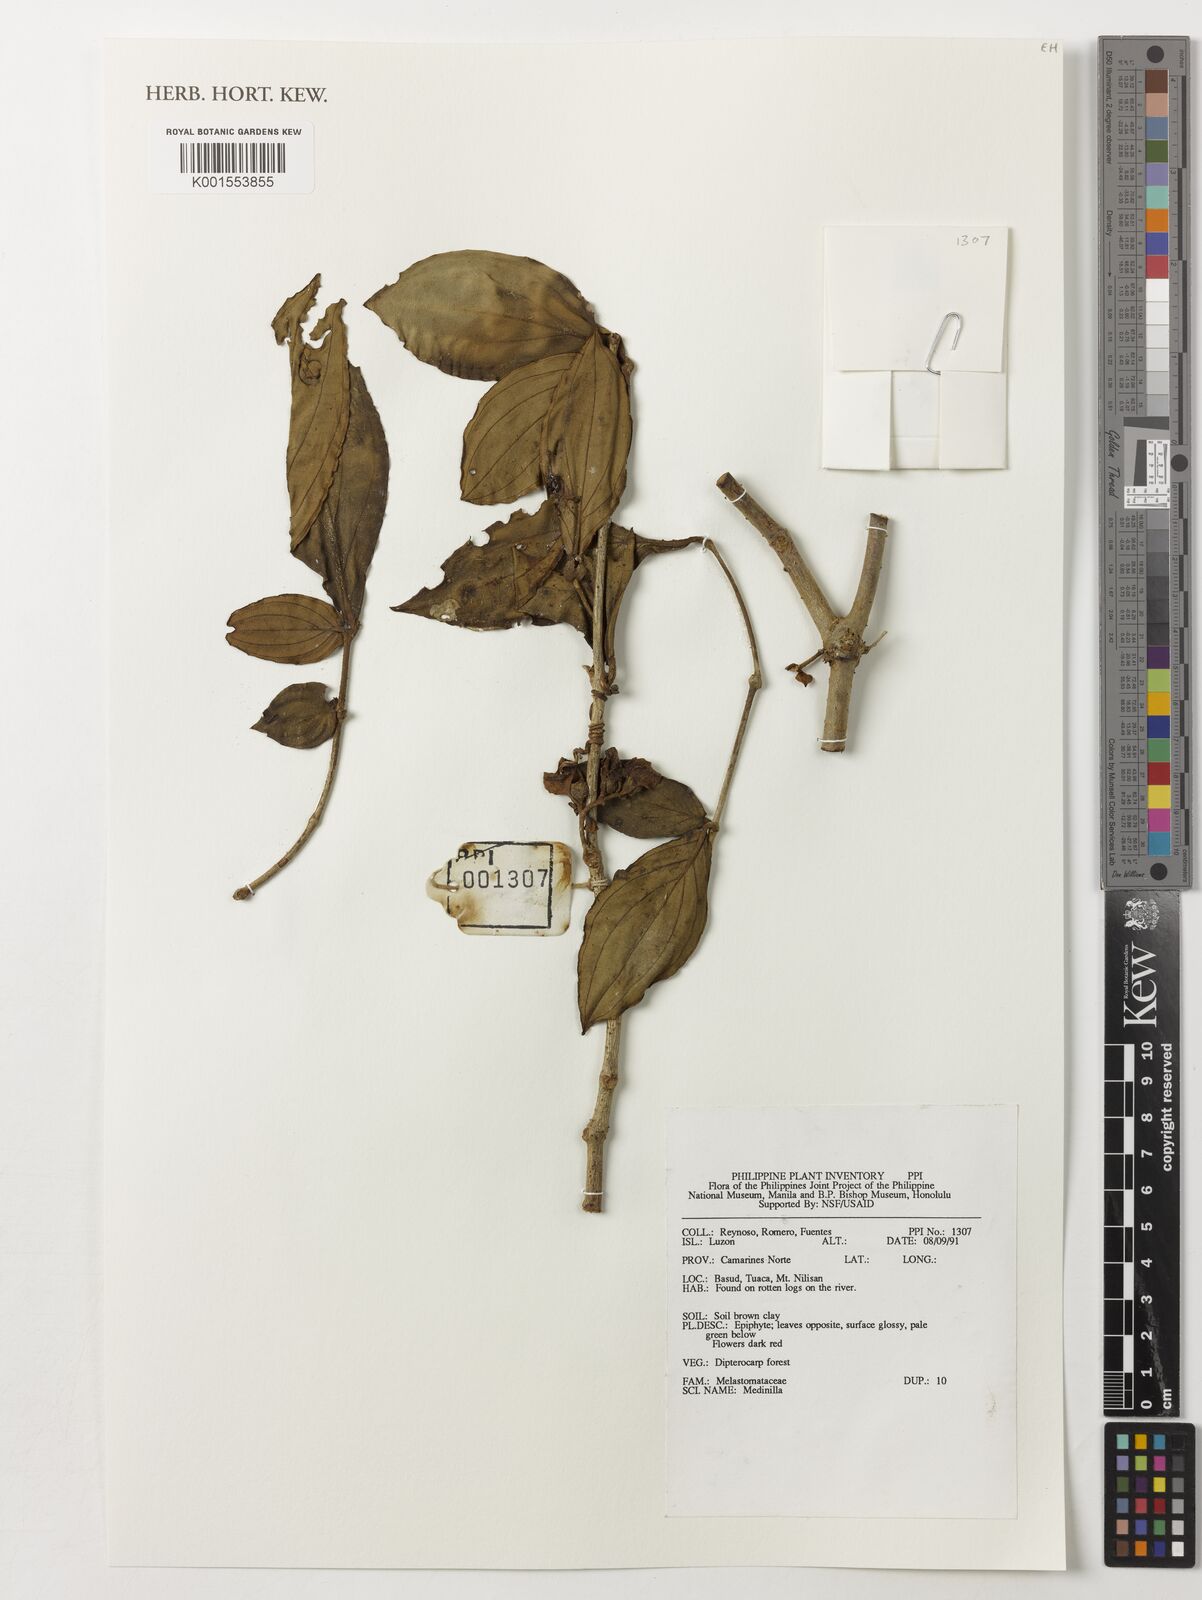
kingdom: Plantae
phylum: Tracheophyta
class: Magnoliopsida
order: Myrtales
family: Melastomataceae
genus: Medinilla
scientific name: Medinilla
